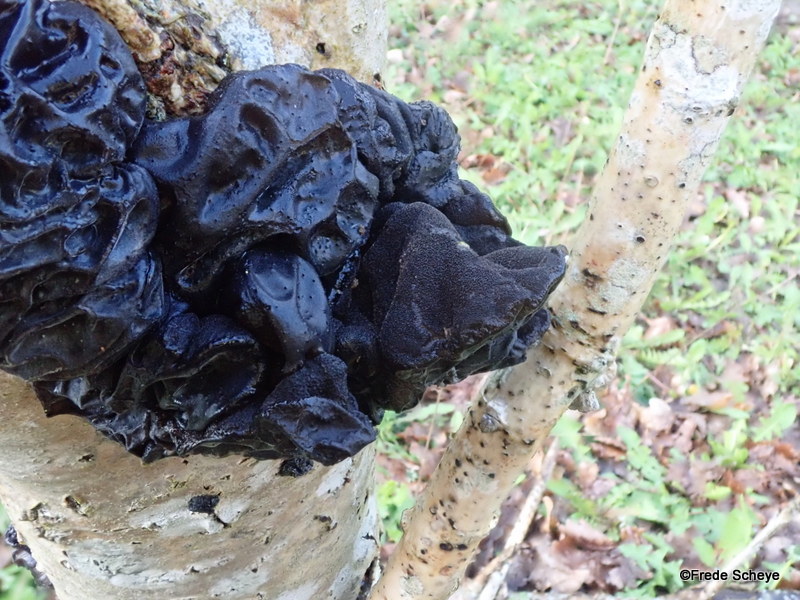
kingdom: Fungi
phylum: Basidiomycota
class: Agaricomycetes
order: Auriculariales
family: Auriculariaceae
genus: Exidia
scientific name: Exidia glandulosa
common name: ege-bævretop
